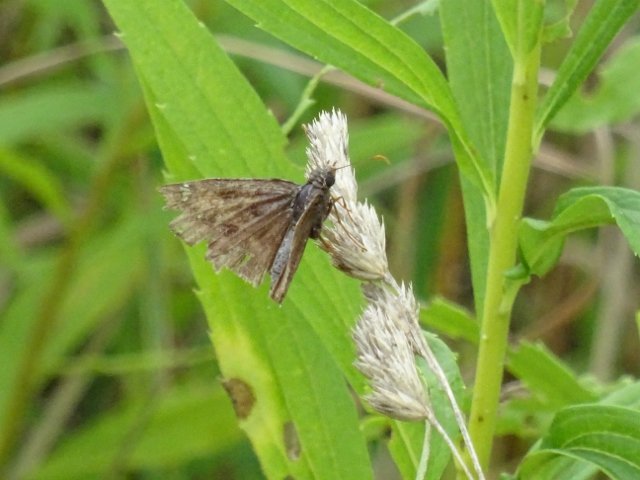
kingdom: Animalia
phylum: Arthropoda
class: Insecta
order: Lepidoptera
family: Hesperiidae
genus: Gesta
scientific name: Gesta
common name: Columbine Duskywing
